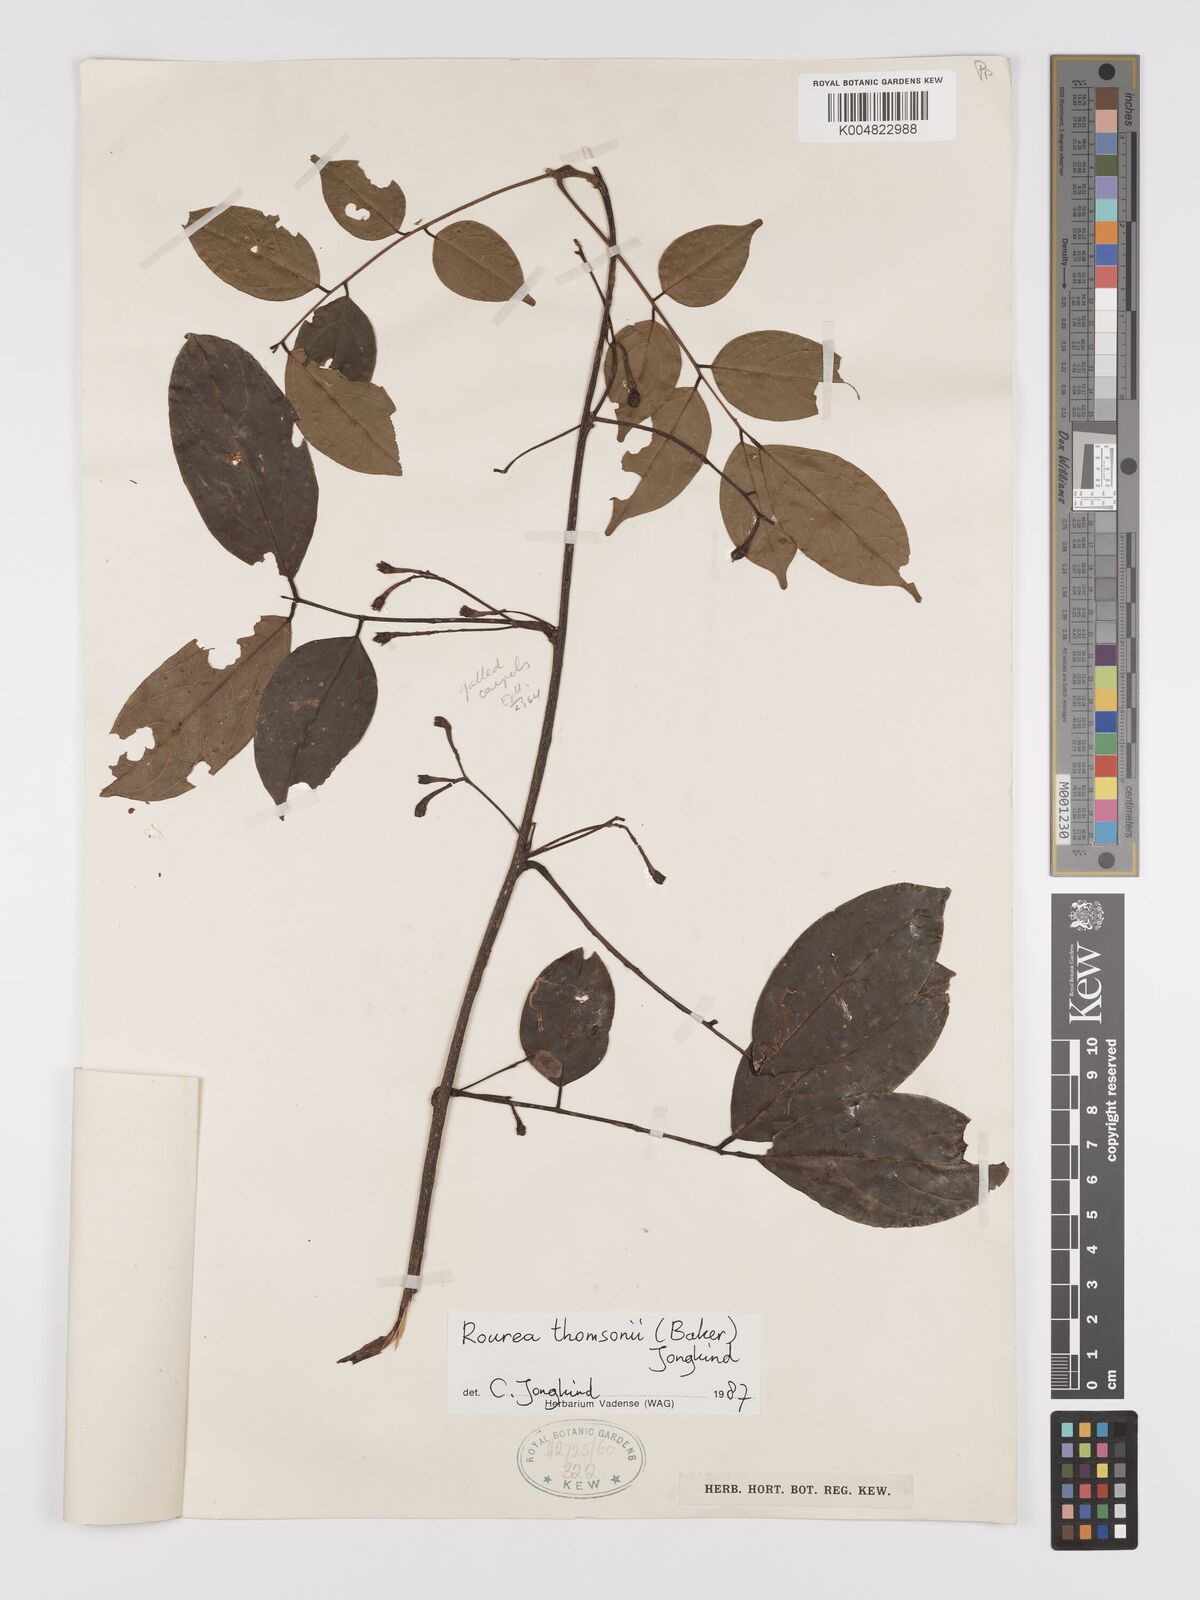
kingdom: Plantae
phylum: Tracheophyta
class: Magnoliopsida
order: Oxalidales
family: Connaraceae
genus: Rourea
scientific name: Rourea pinnata
